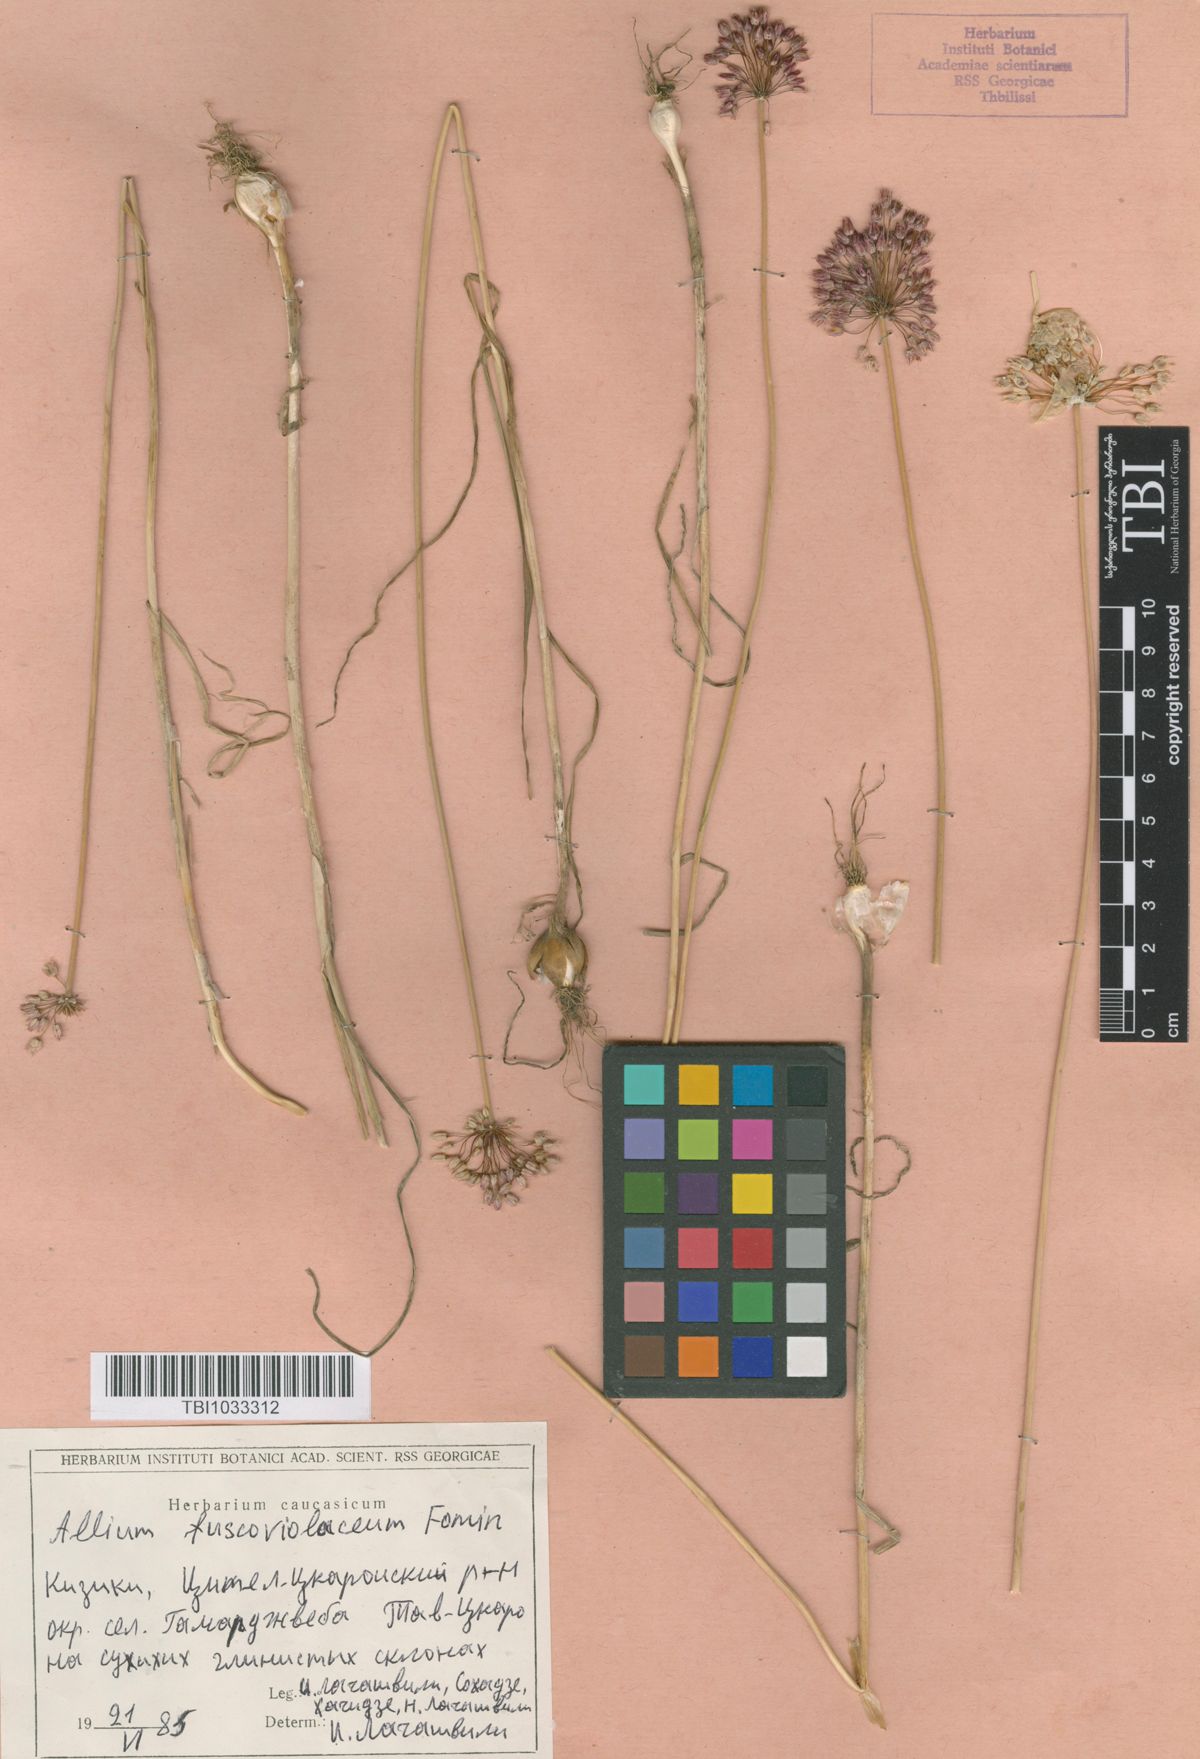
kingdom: Plantae
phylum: Tracheophyta
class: Liliopsida
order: Asparagales
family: Amaryllidaceae
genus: Allium
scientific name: Allium fuscoviolaceum
